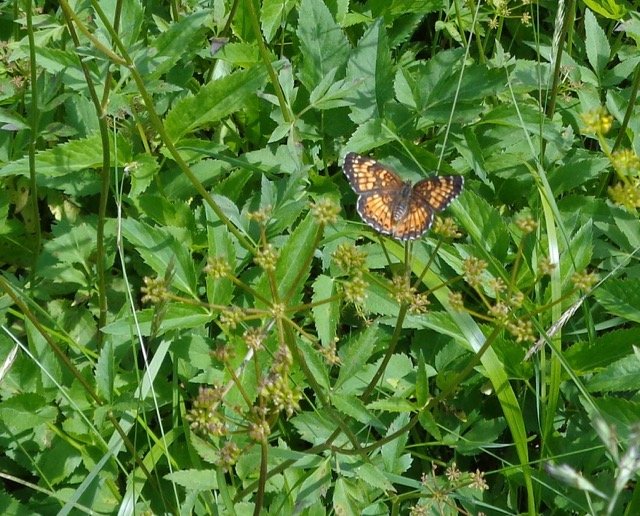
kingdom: Animalia
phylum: Arthropoda
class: Insecta
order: Lepidoptera
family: Nymphalidae
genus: Chlosyne
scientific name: Chlosyne harrisii
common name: Harris's Checkerspot
